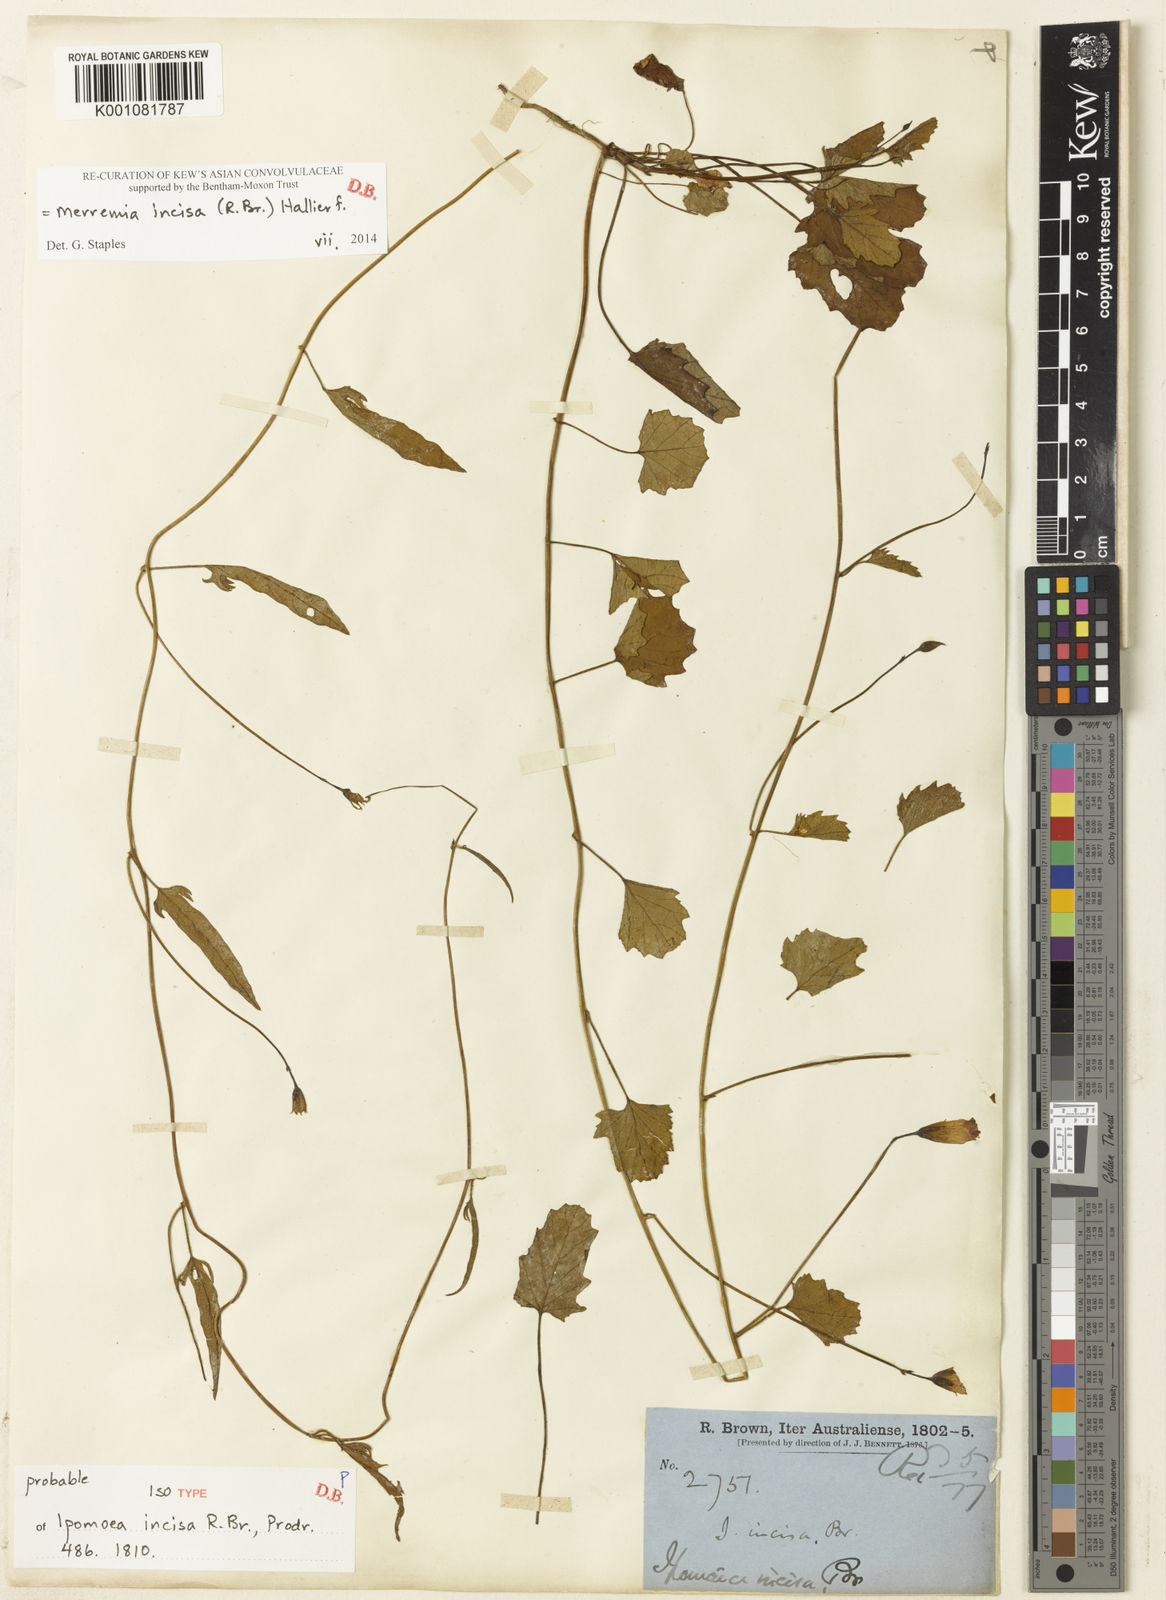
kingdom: Plantae
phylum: Tracheophyta
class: Magnoliopsida
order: Solanales
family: Convolvulaceae
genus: Merremia
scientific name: Merremia incisa
